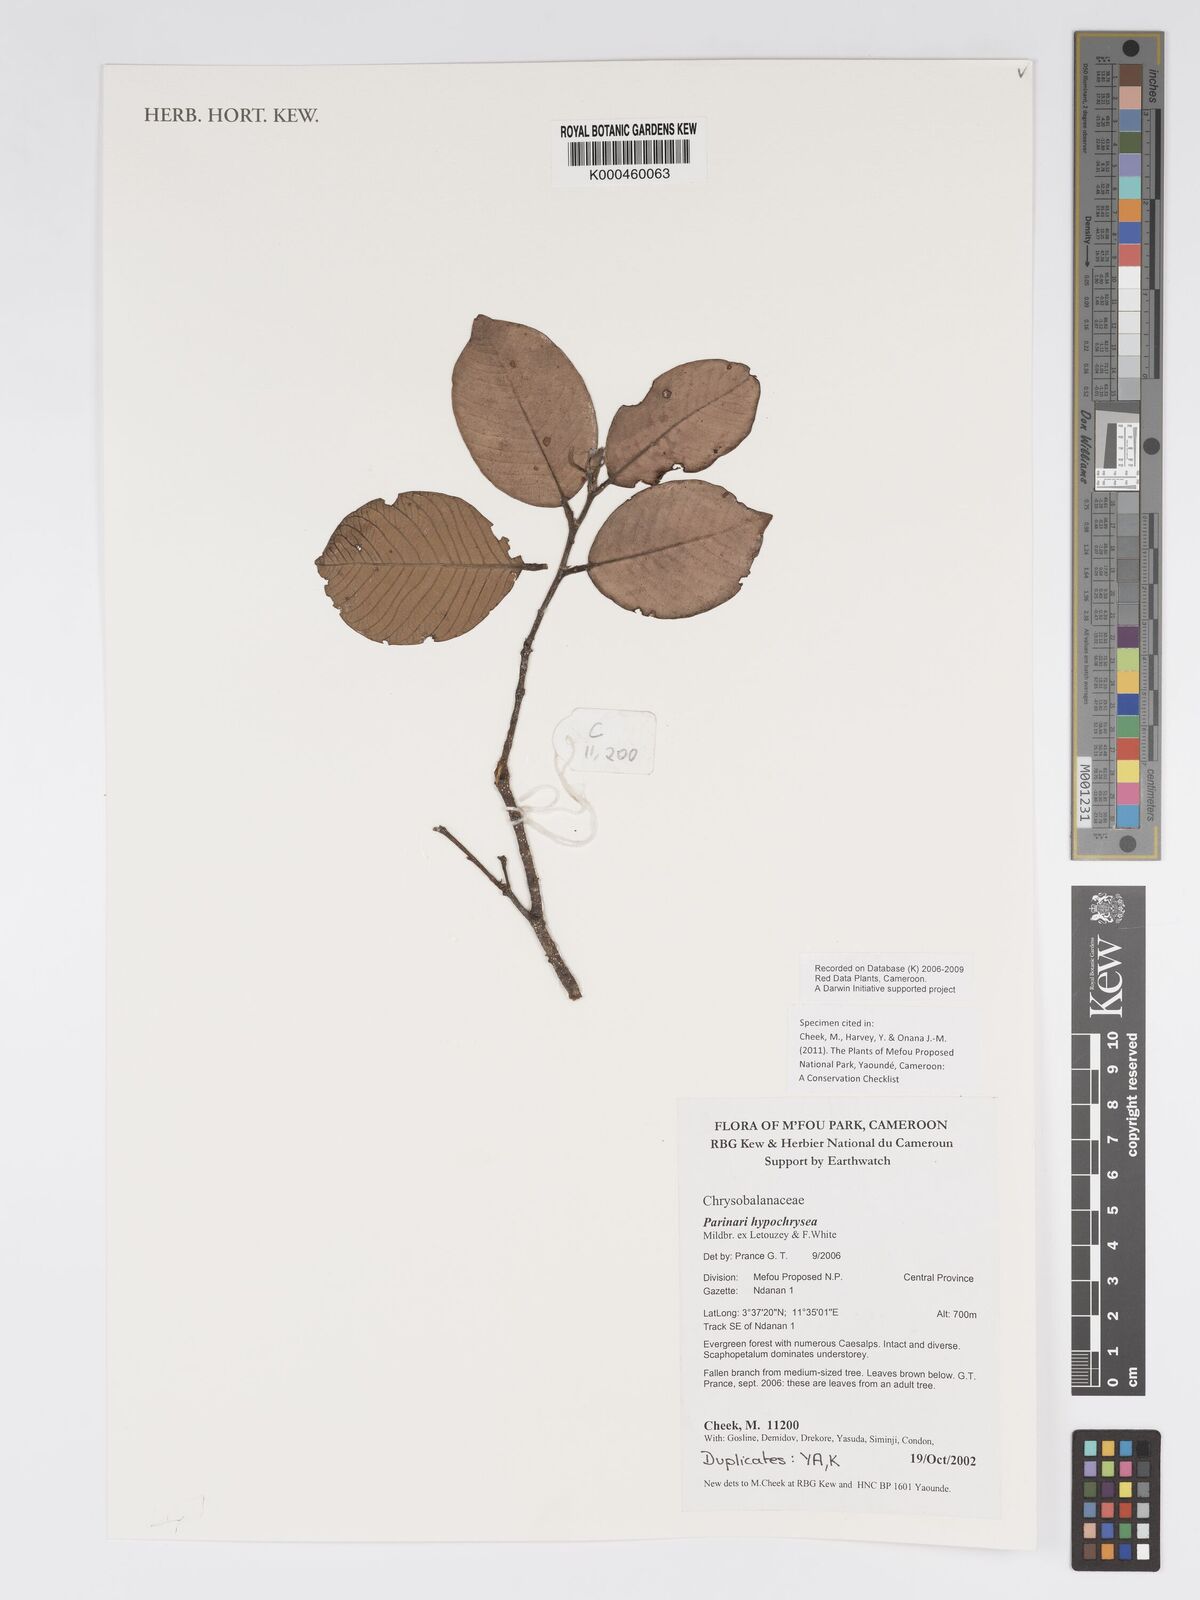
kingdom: Plantae
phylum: Tracheophyta
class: Magnoliopsida
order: Malpighiales
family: Chrysobalanaceae
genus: Parinari
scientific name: Parinari hypochrysea
